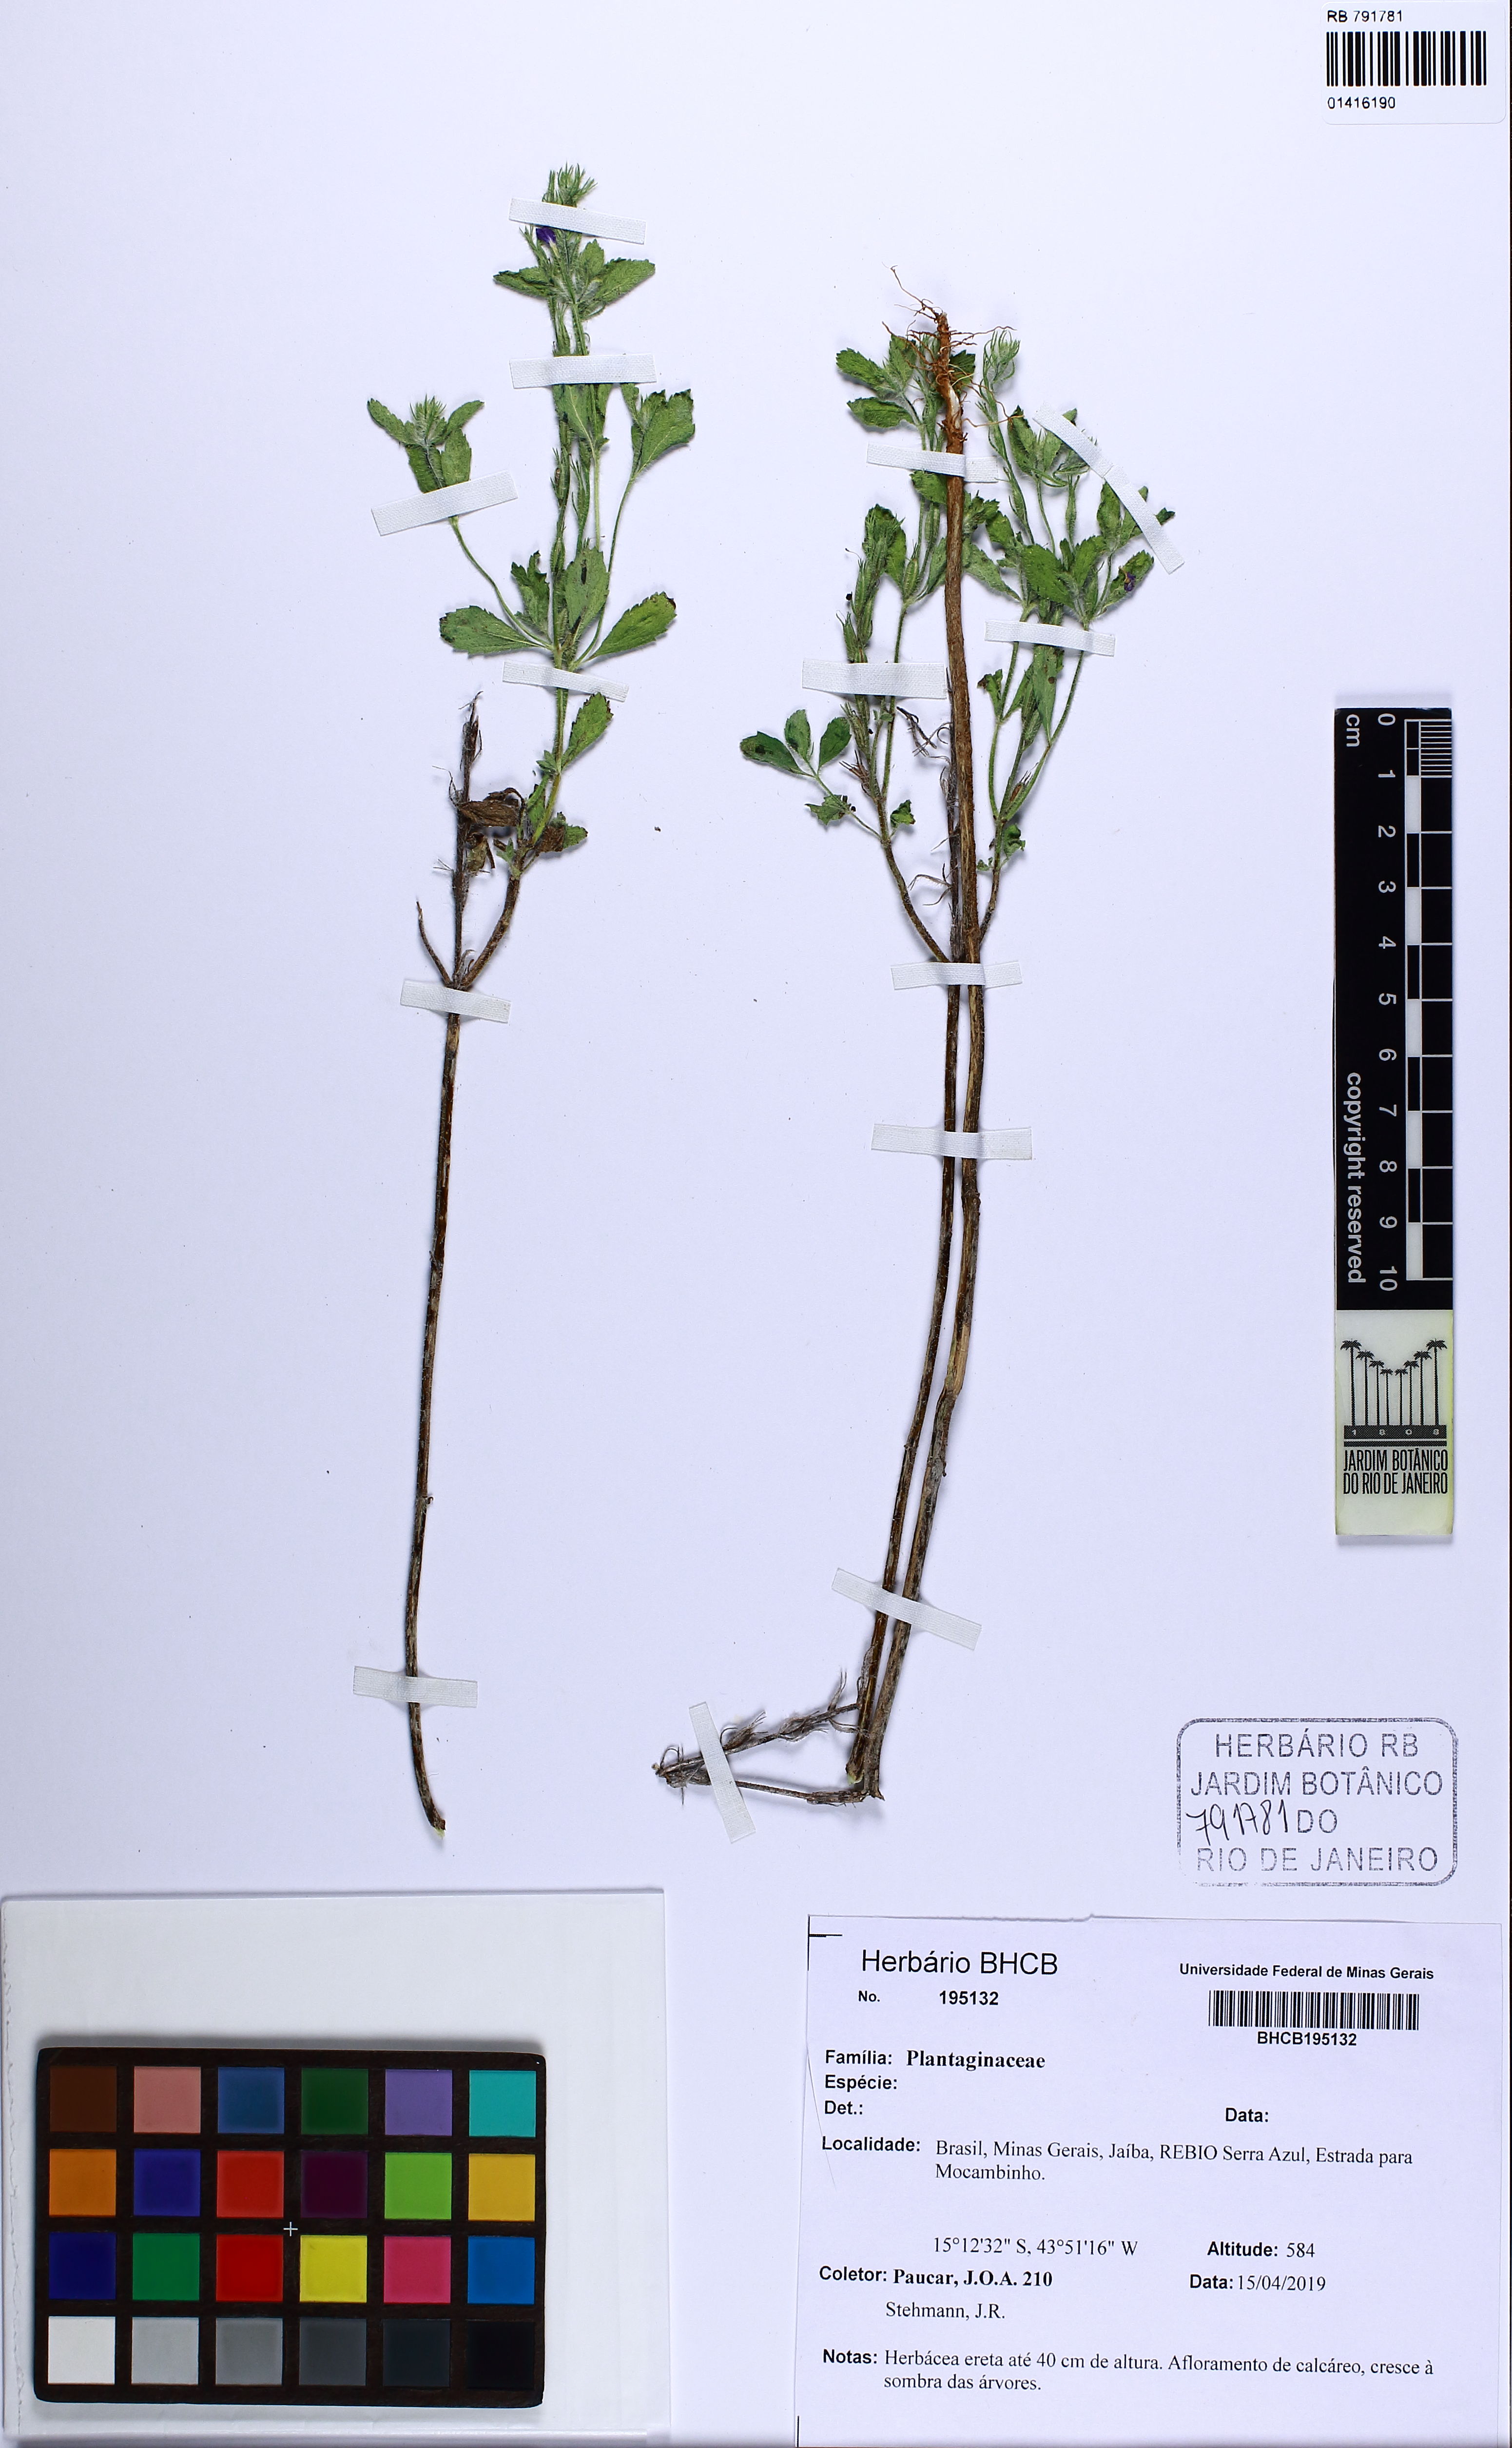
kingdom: Plantae
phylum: Tracheophyta
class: Magnoliopsida
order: Lamiales
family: Plantaginaceae
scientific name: Plantaginaceae
